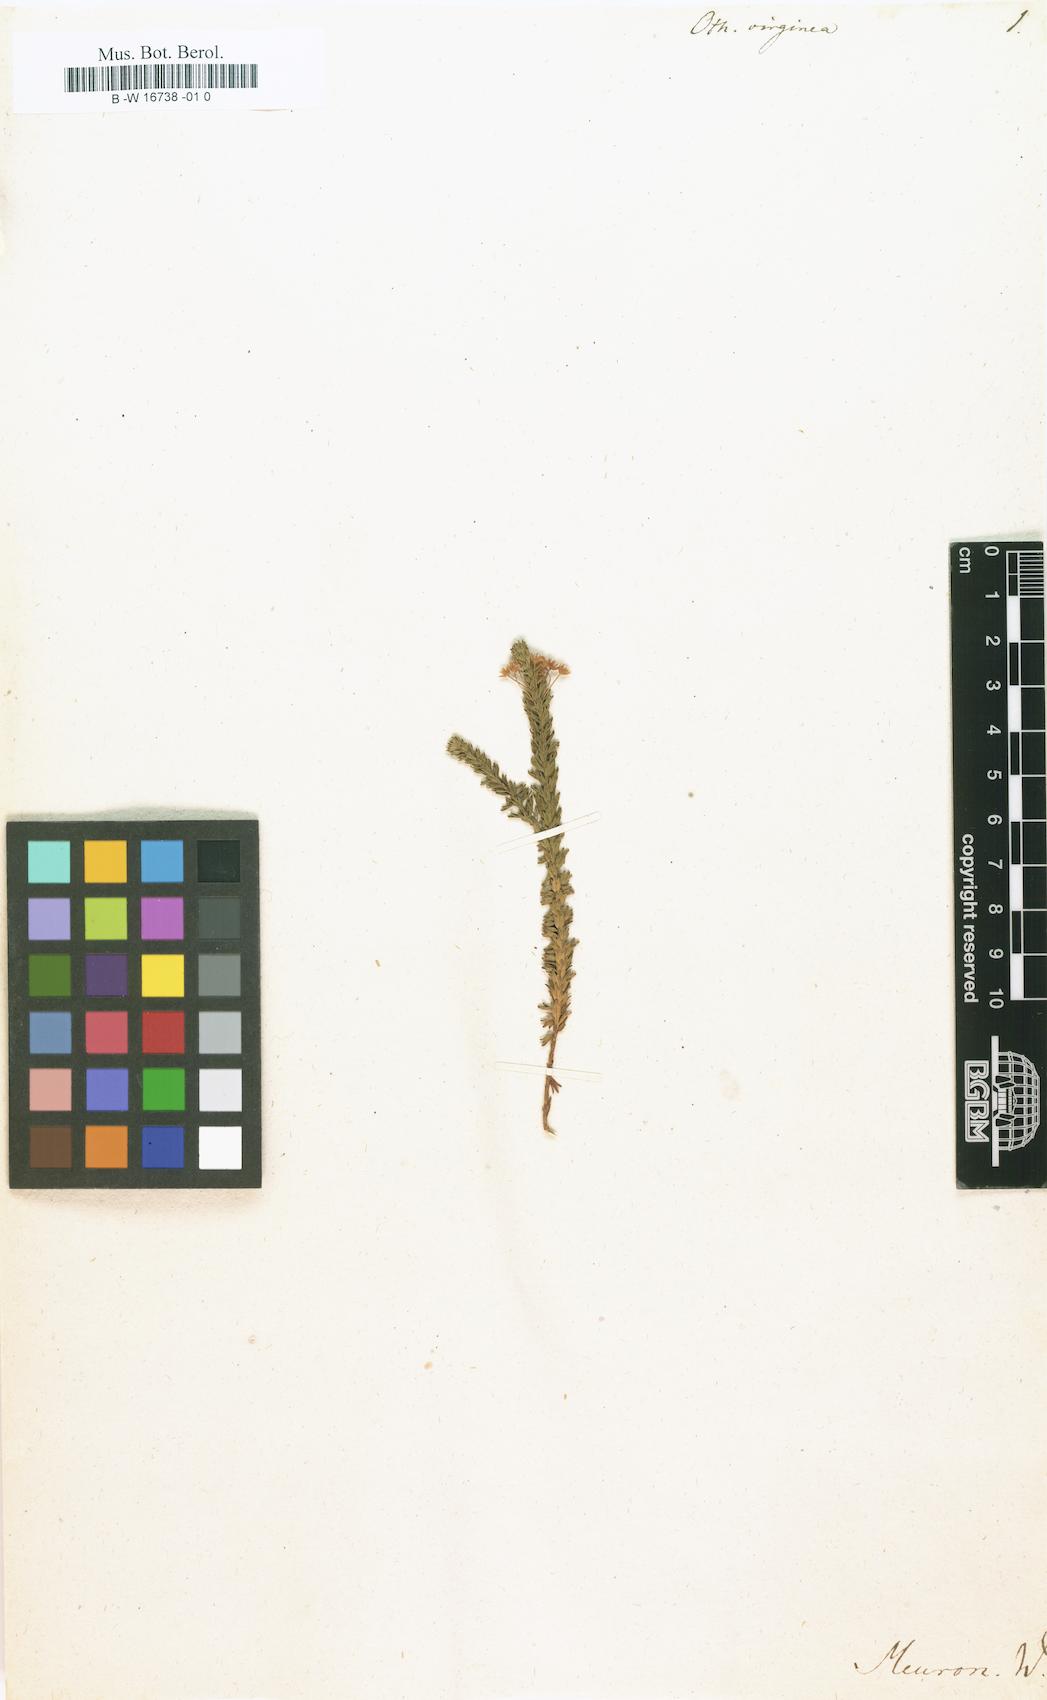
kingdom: Plantae
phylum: Tracheophyta
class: Magnoliopsida
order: Asterales
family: Asteraceae
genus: Euryops
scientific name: Euryops virgineus
